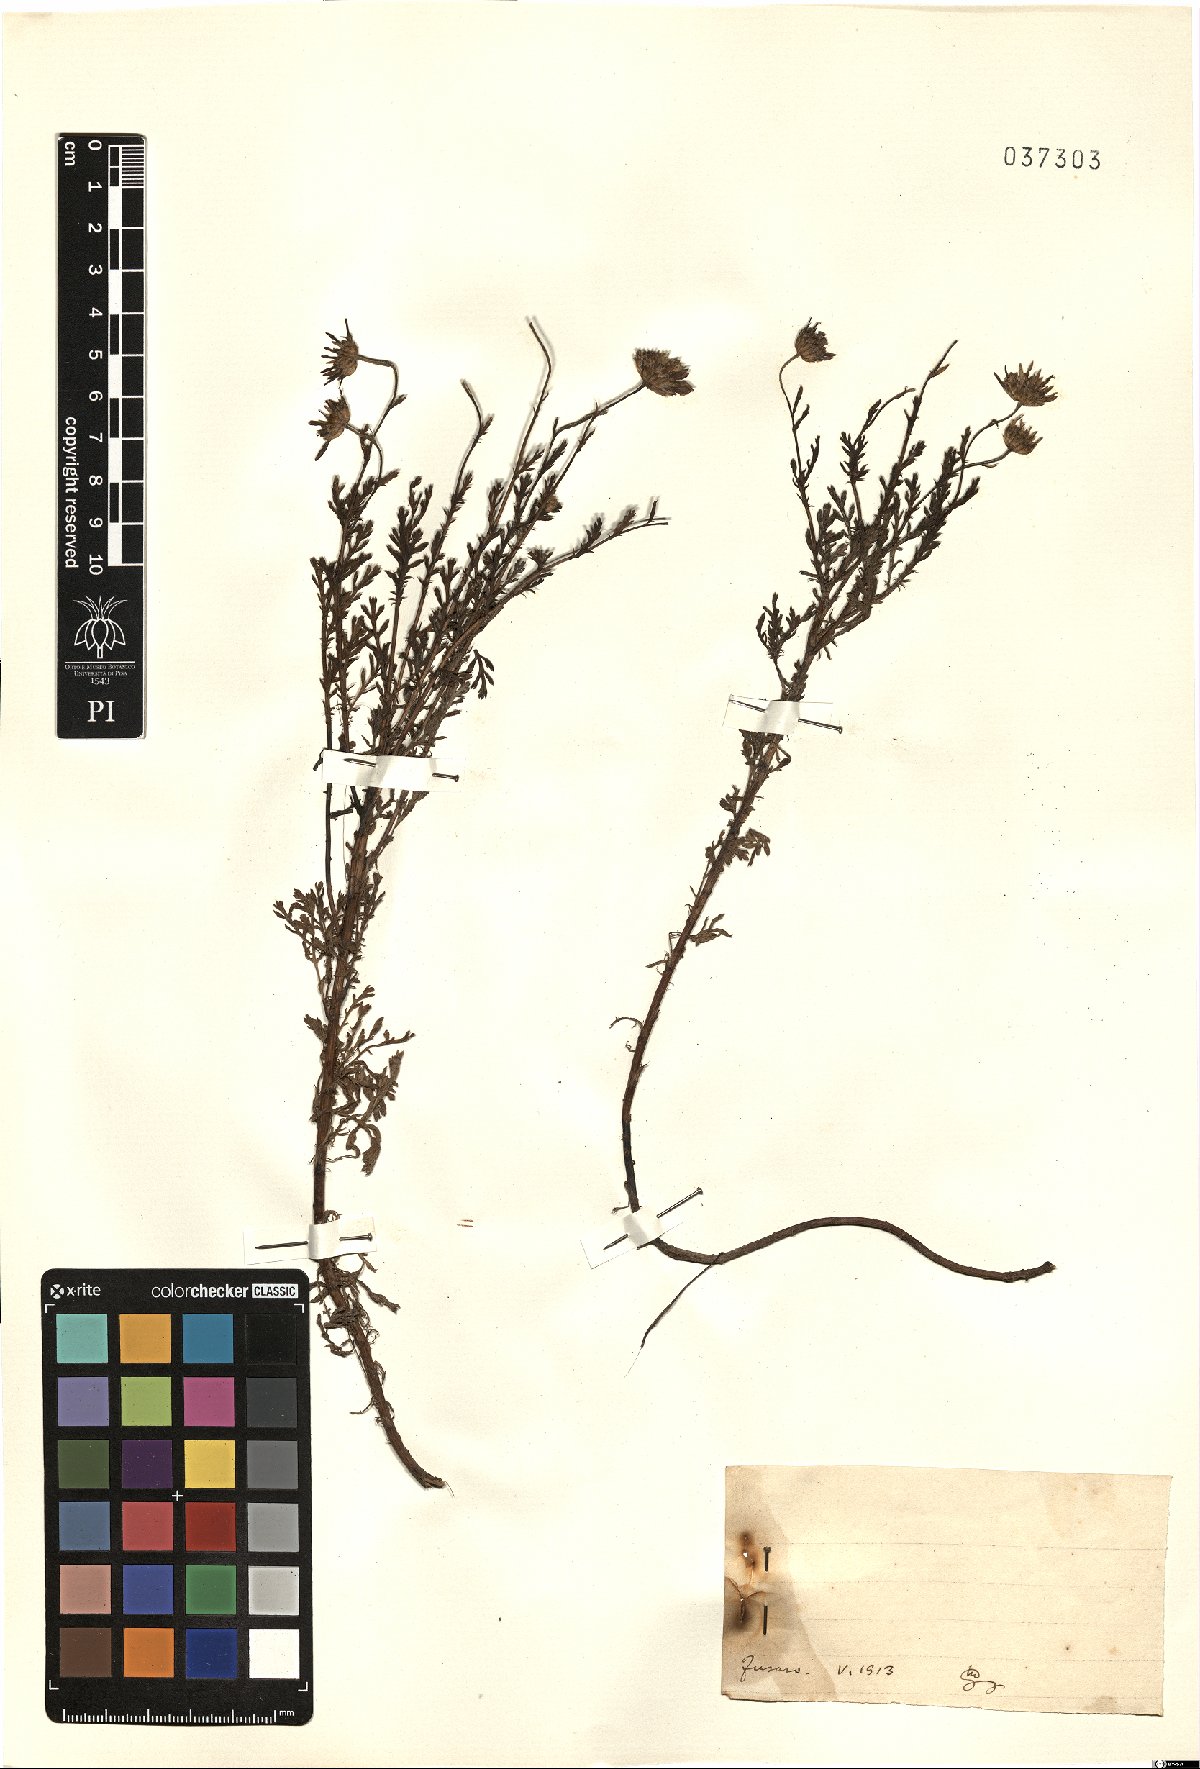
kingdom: Plantae
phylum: Tracheophyta
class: Magnoliopsida
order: Asterales
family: Asteraceae
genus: Anthemis
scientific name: Anthemis
